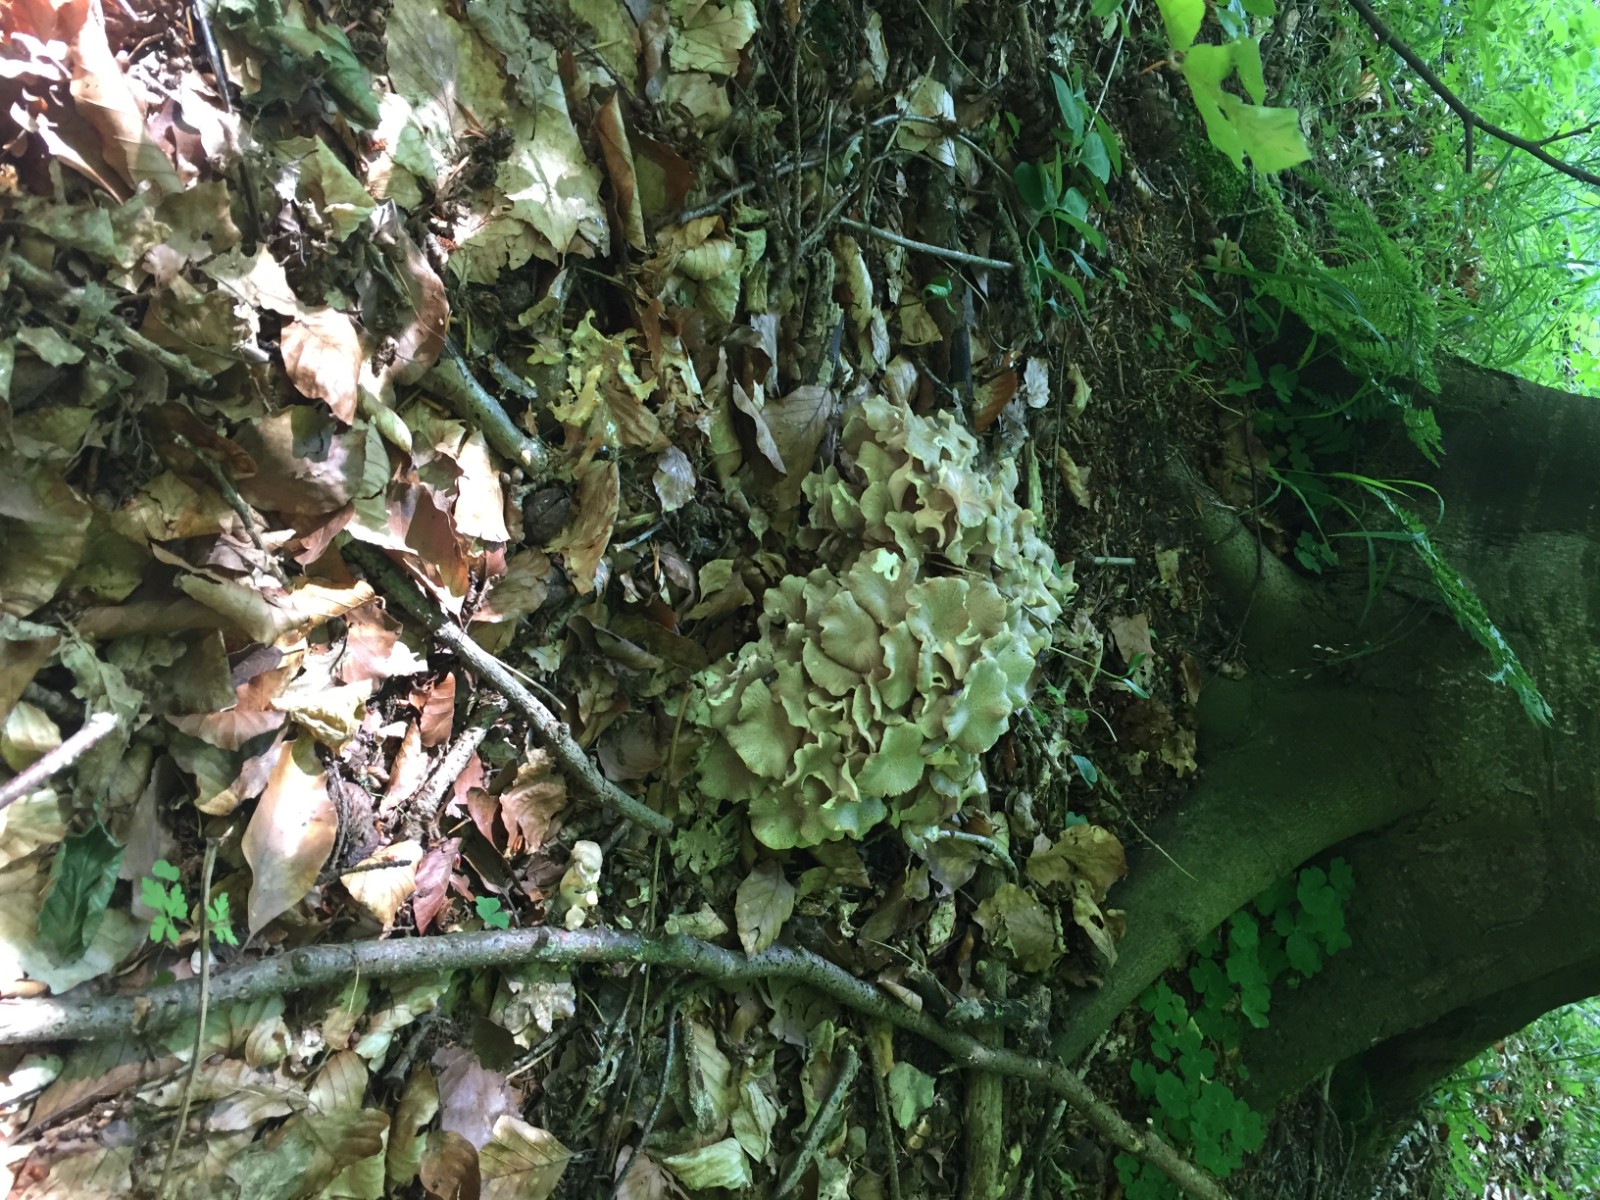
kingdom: Fungi
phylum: Basidiomycota
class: Agaricomycetes
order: Polyporales
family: Polyporaceae
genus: Polyporus
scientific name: Polyporus umbellatus
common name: skærmformet stilkporesvamp
